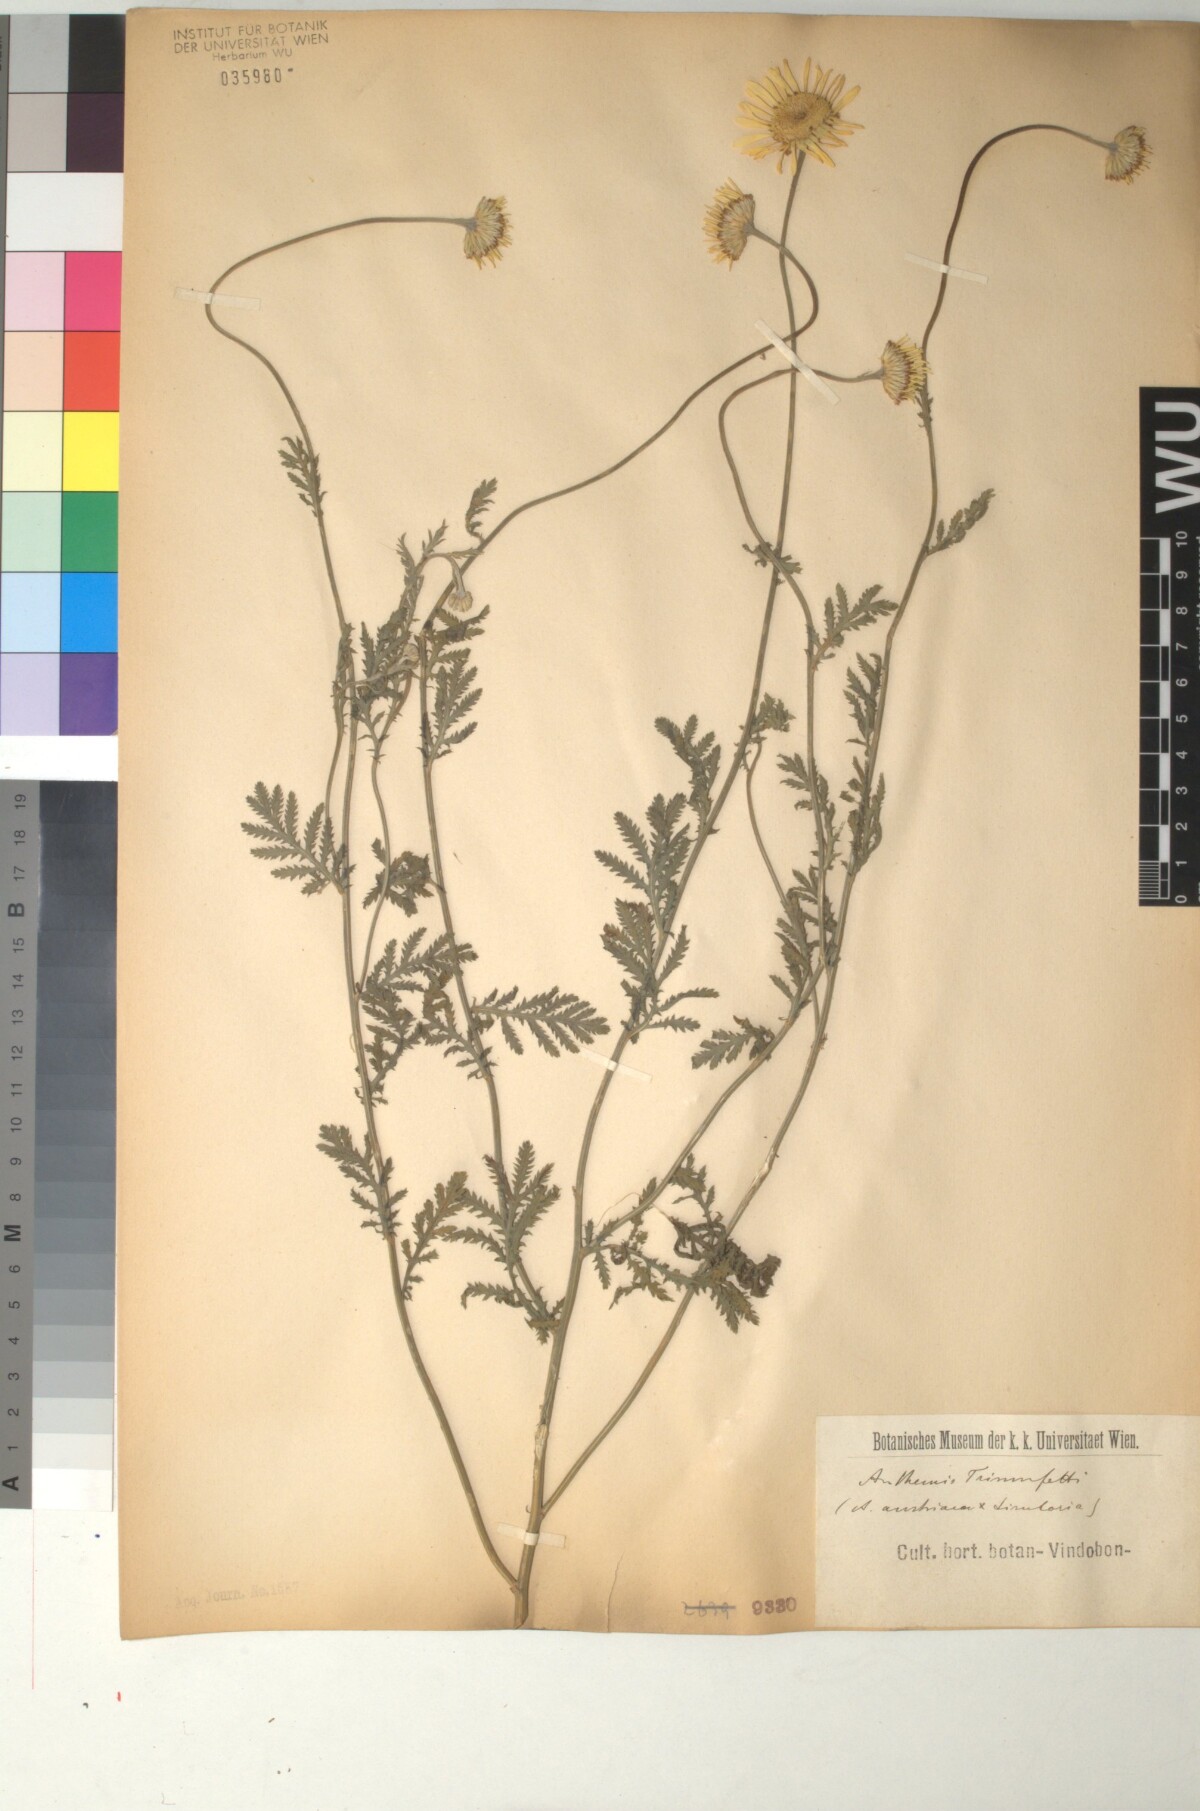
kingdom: Plantae
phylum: Tracheophyta
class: Magnoliopsida
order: Asterales
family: Asteraceae
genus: Cota
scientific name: Cota austriaca
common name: Austrian chamomile
